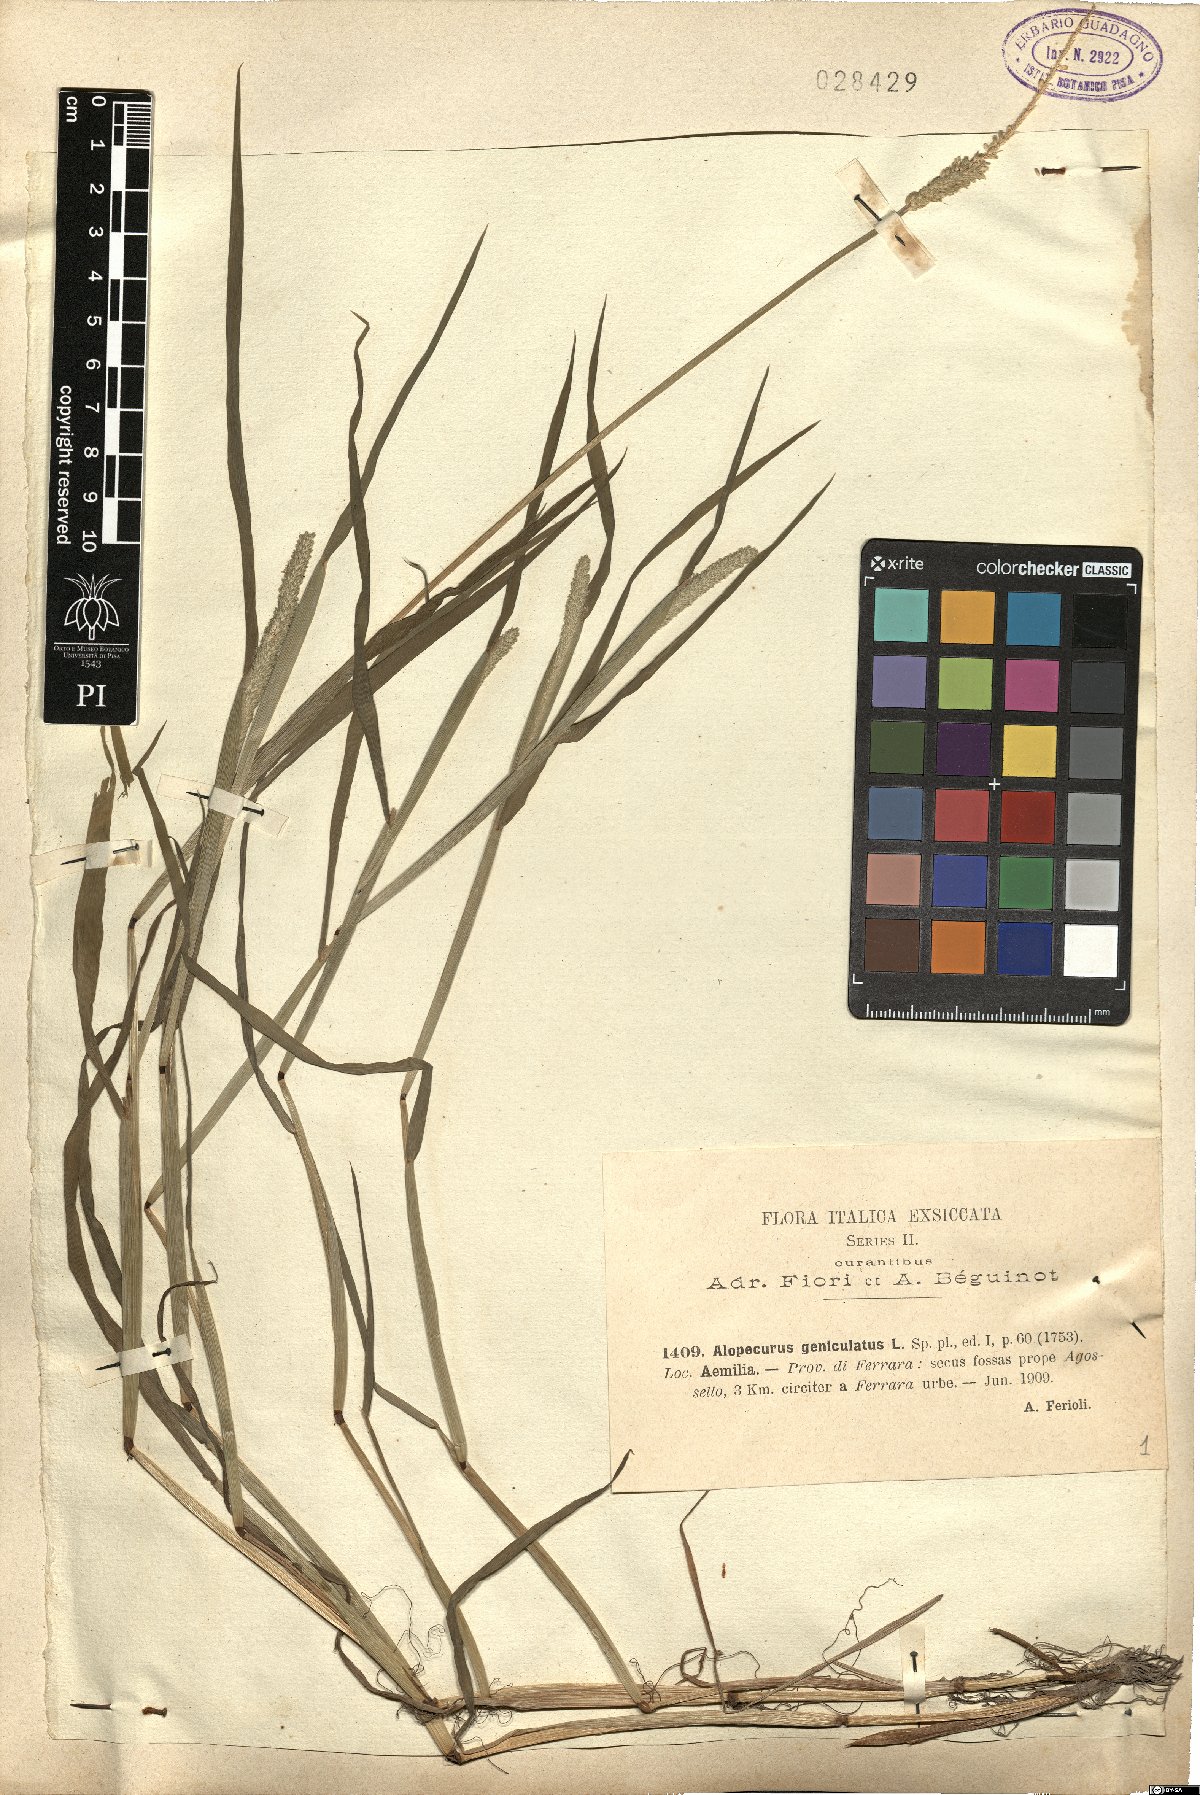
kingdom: Plantae
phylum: Tracheophyta
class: Liliopsida
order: Poales
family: Poaceae
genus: Alopecurus
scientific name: Alopecurus geniculatus
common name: Water foxtail
